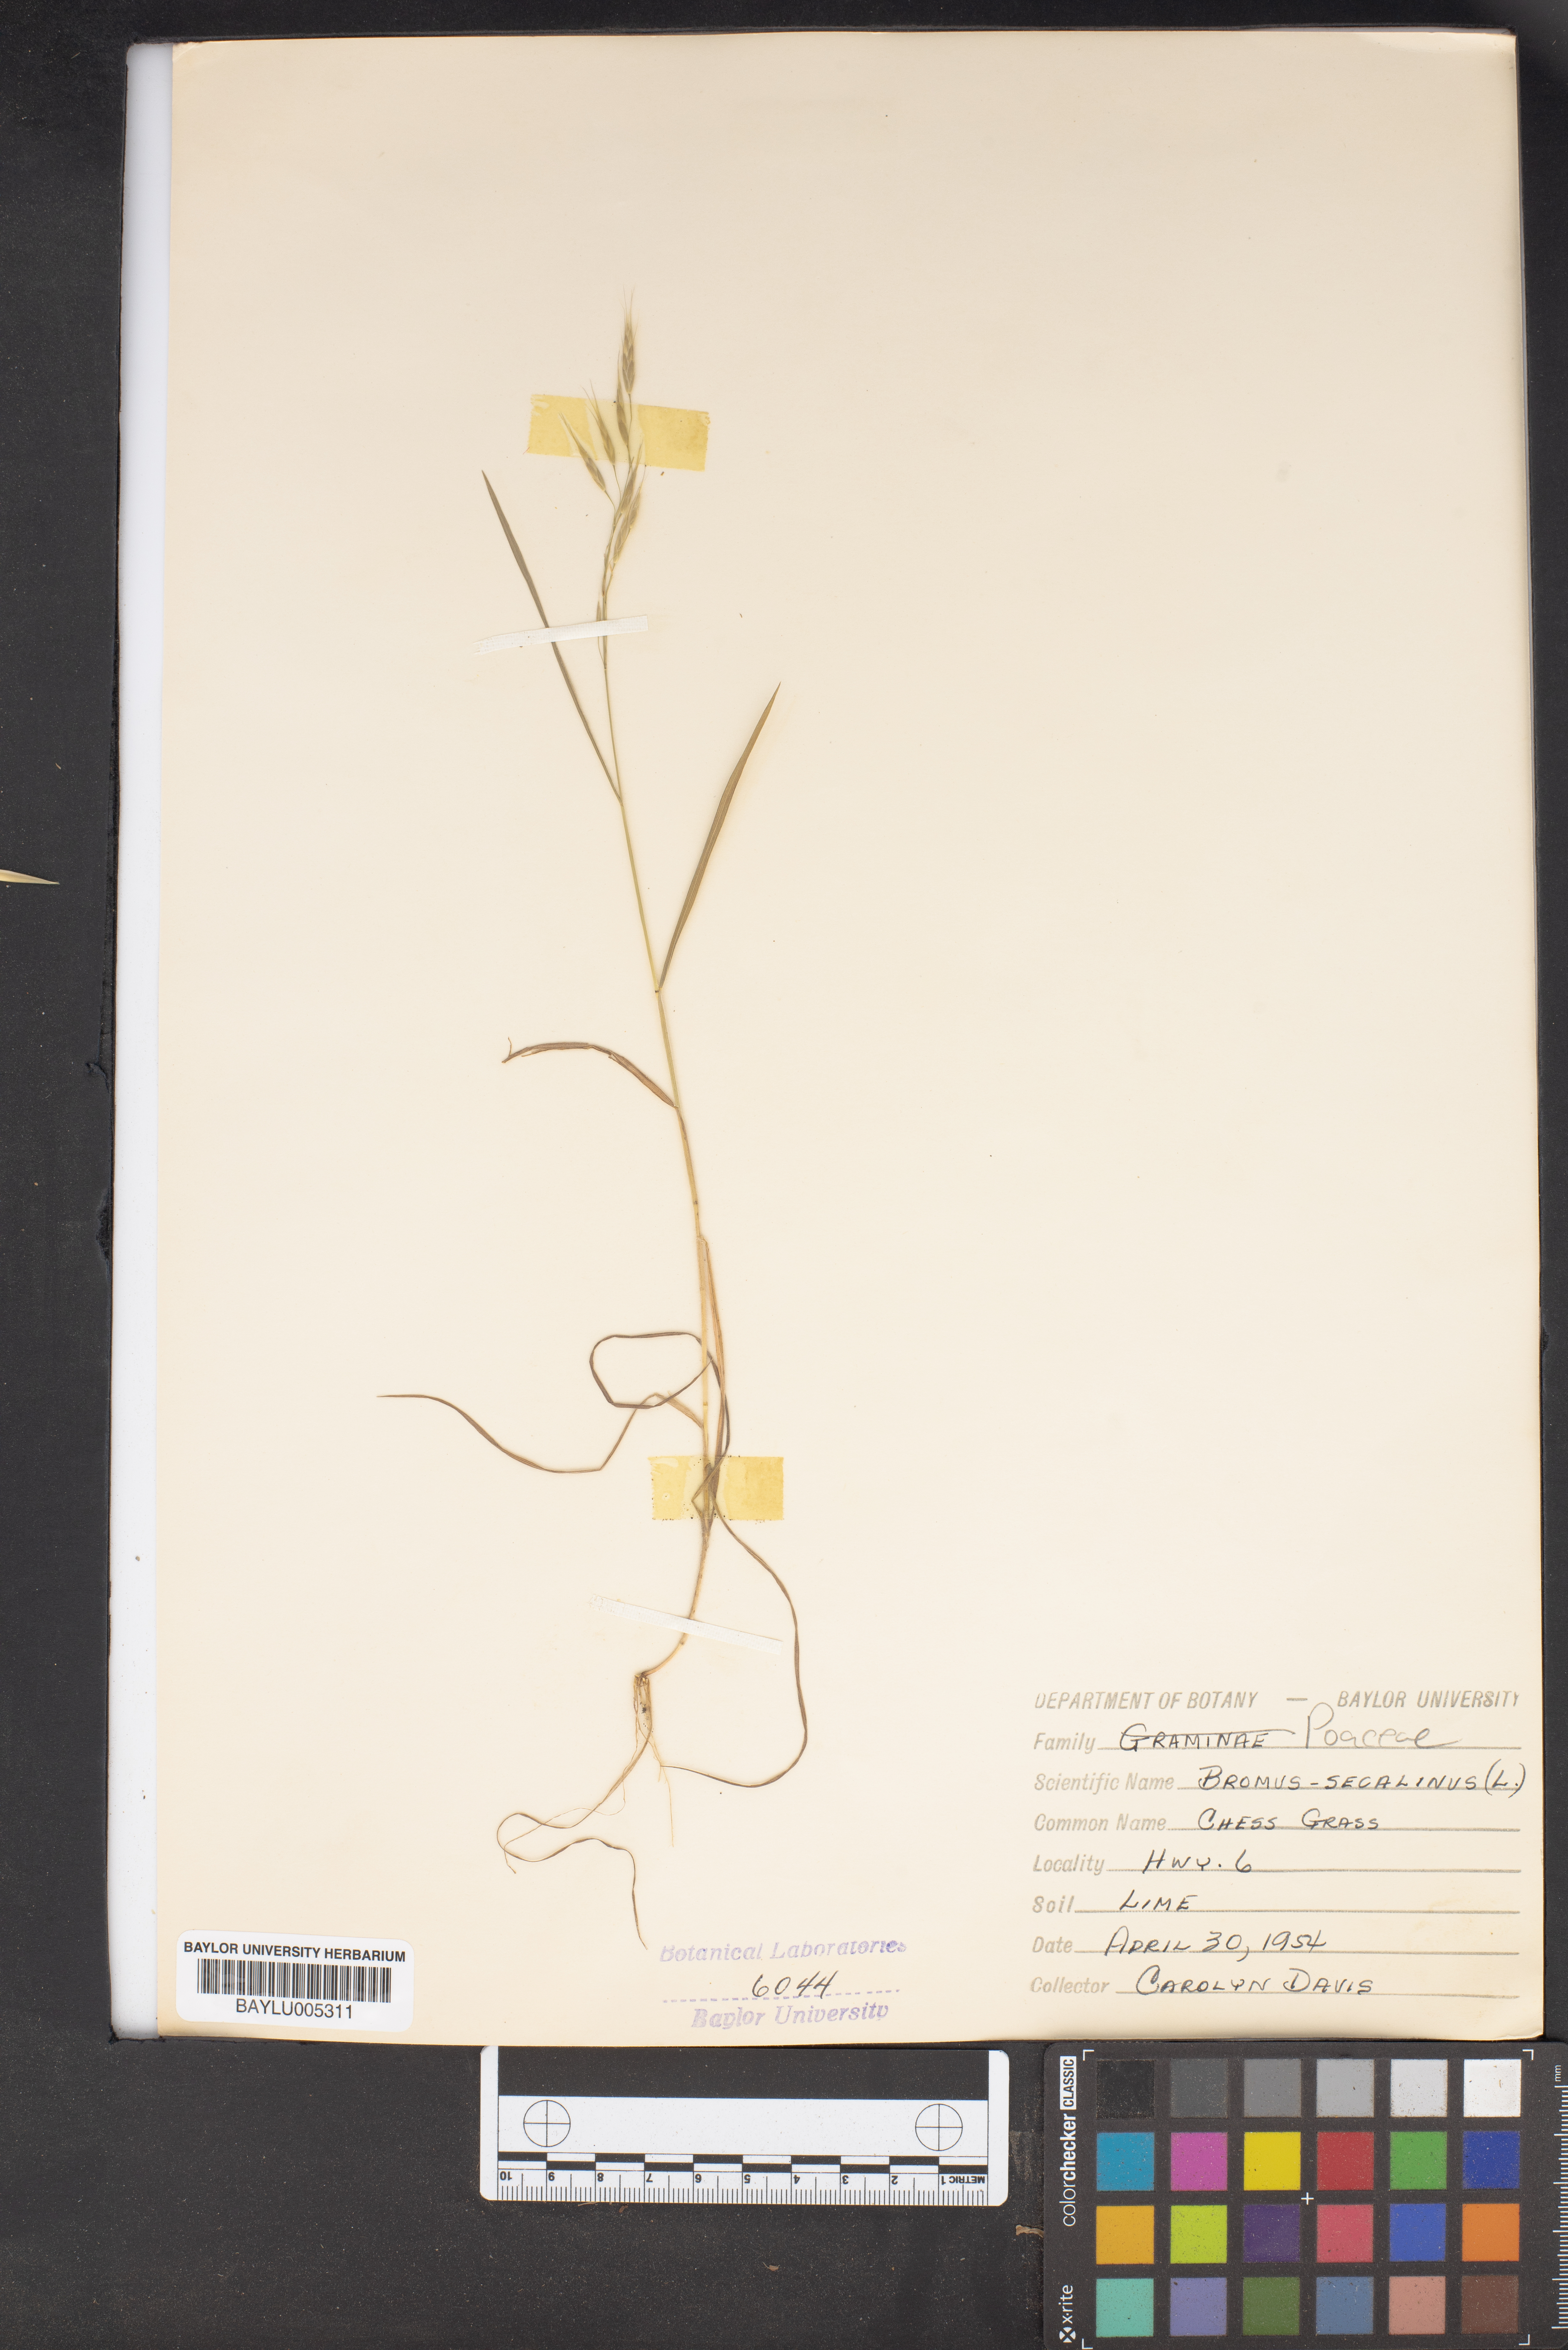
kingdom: Plantae
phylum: Tracheophyta
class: Liliopsida
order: Poales
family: Poaceae
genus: Bromus
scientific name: Bromus secalinus
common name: Rye brome
